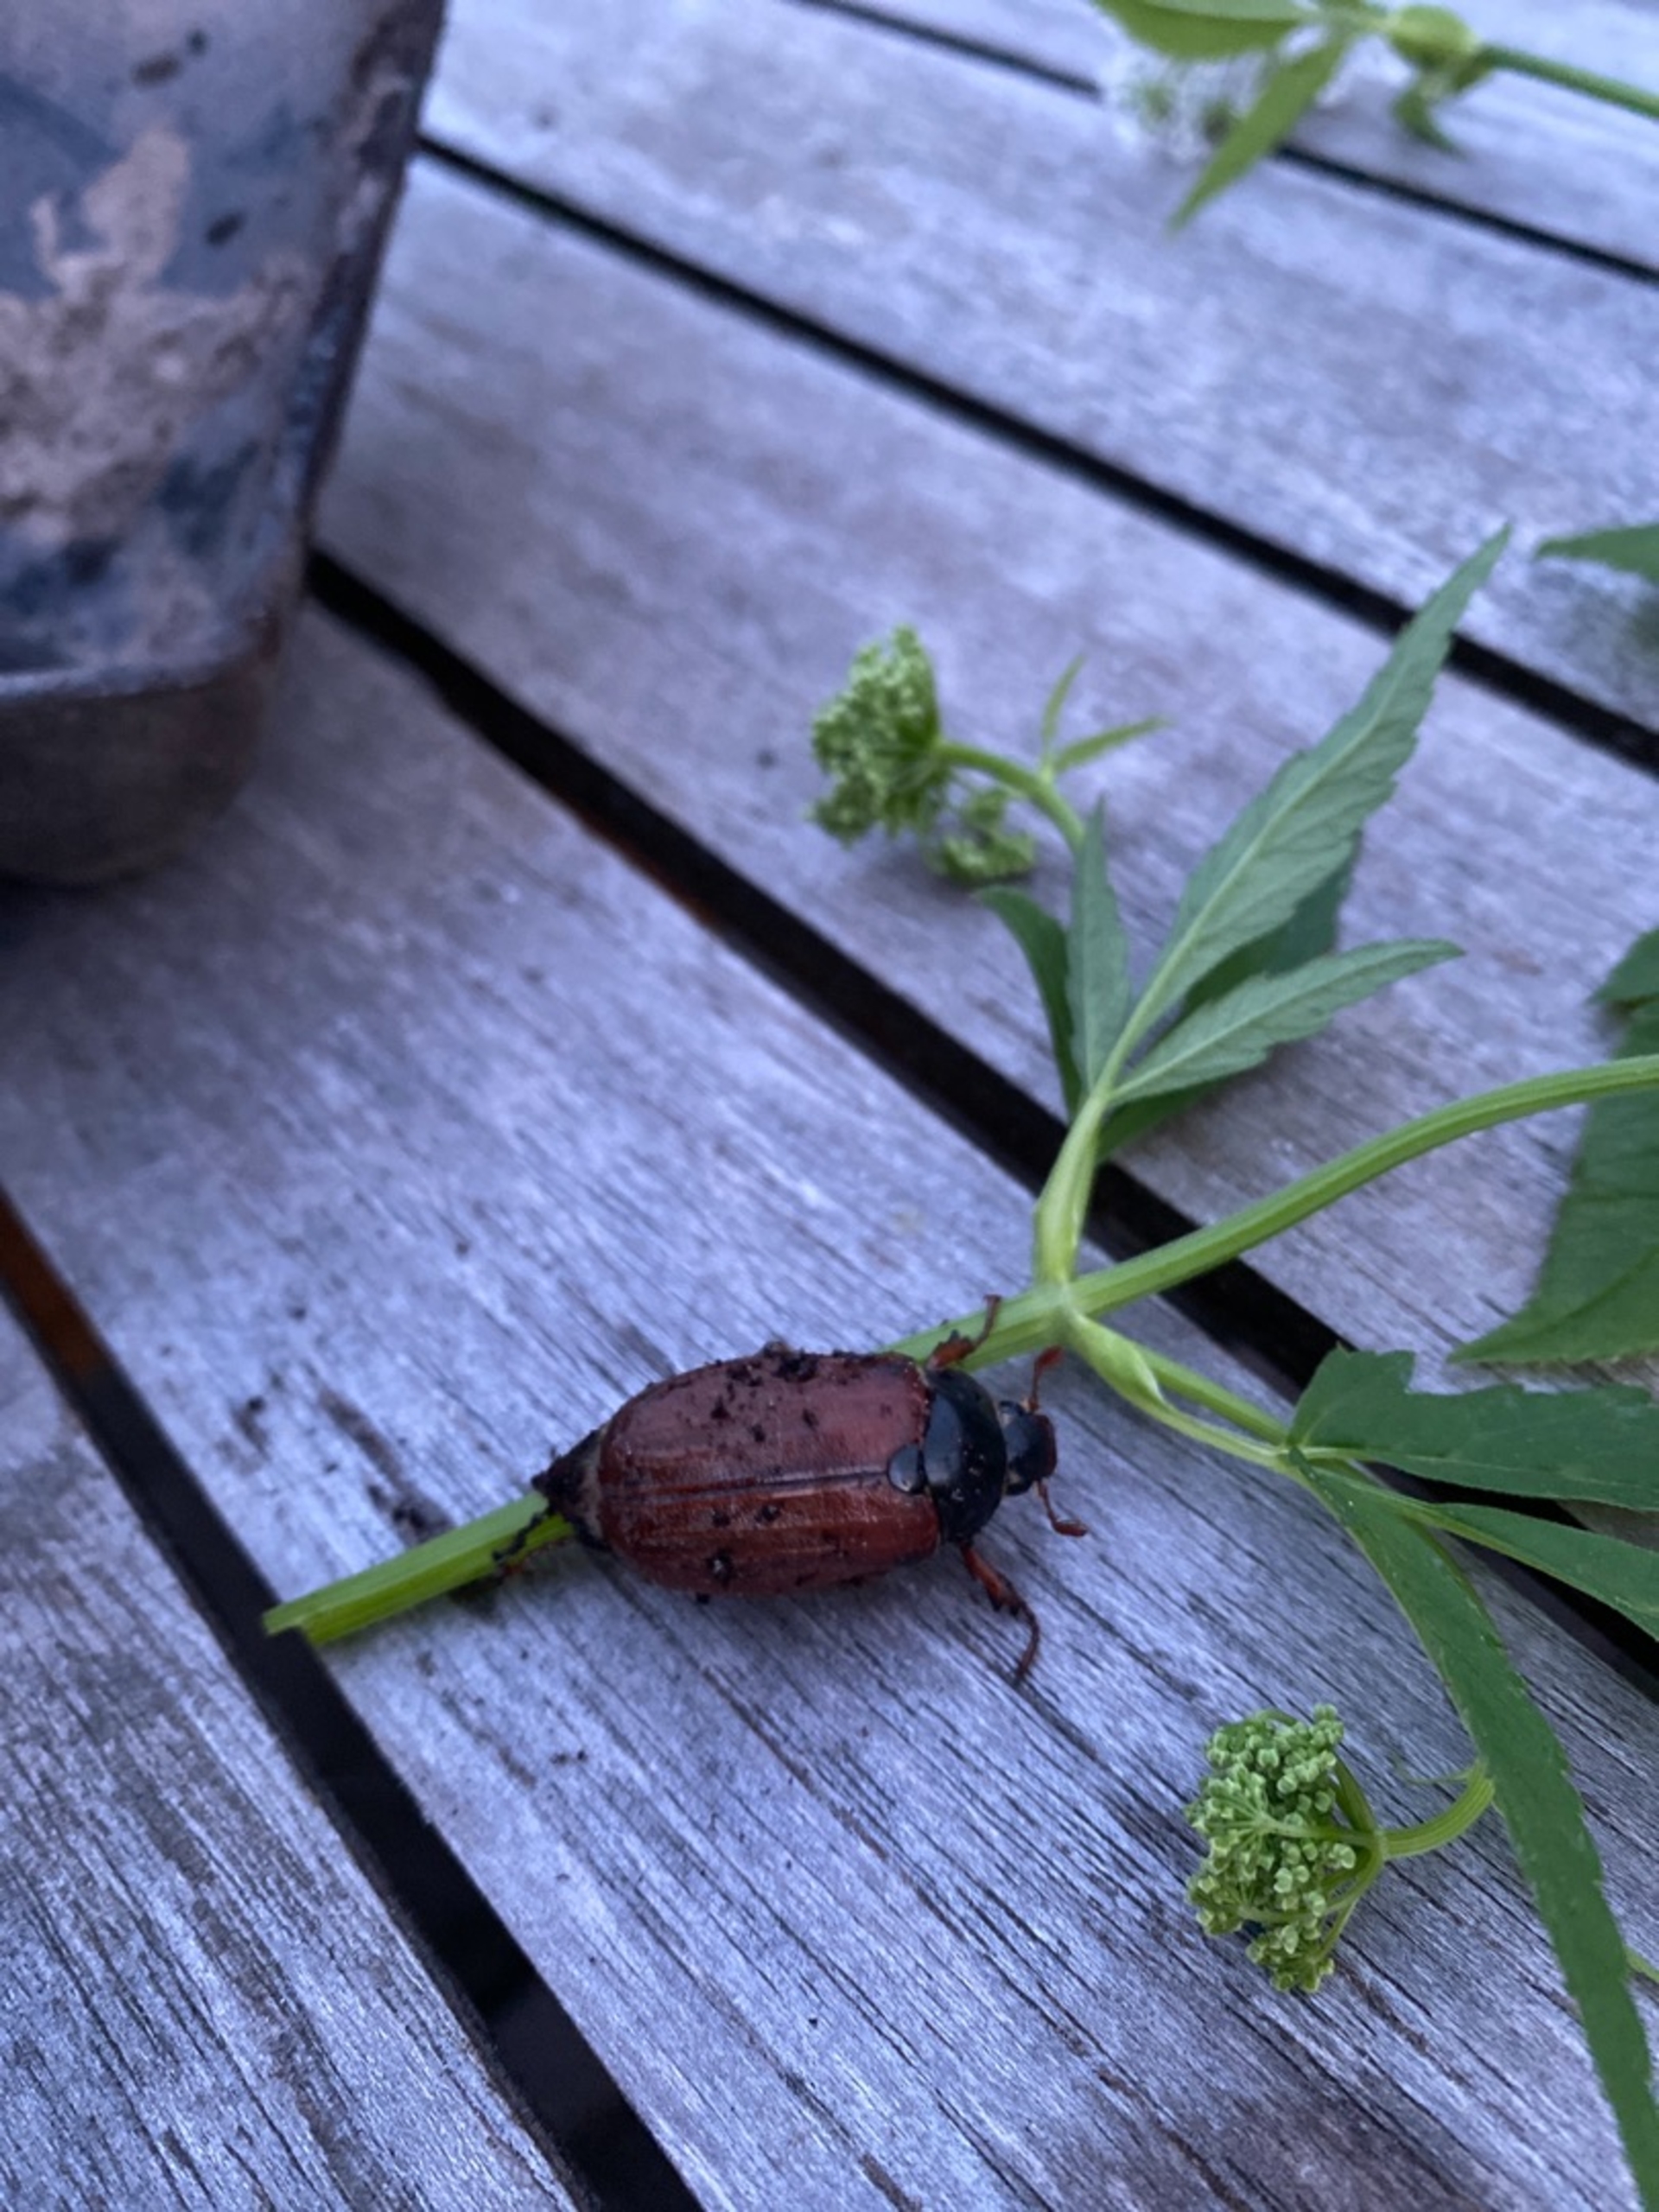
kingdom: Animalia
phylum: Arthropoda
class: Insecta
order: Coleoptera
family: Scarabaeidae
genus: Melolontha
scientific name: Melolontha melolontha
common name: Almindelig oldenborre
